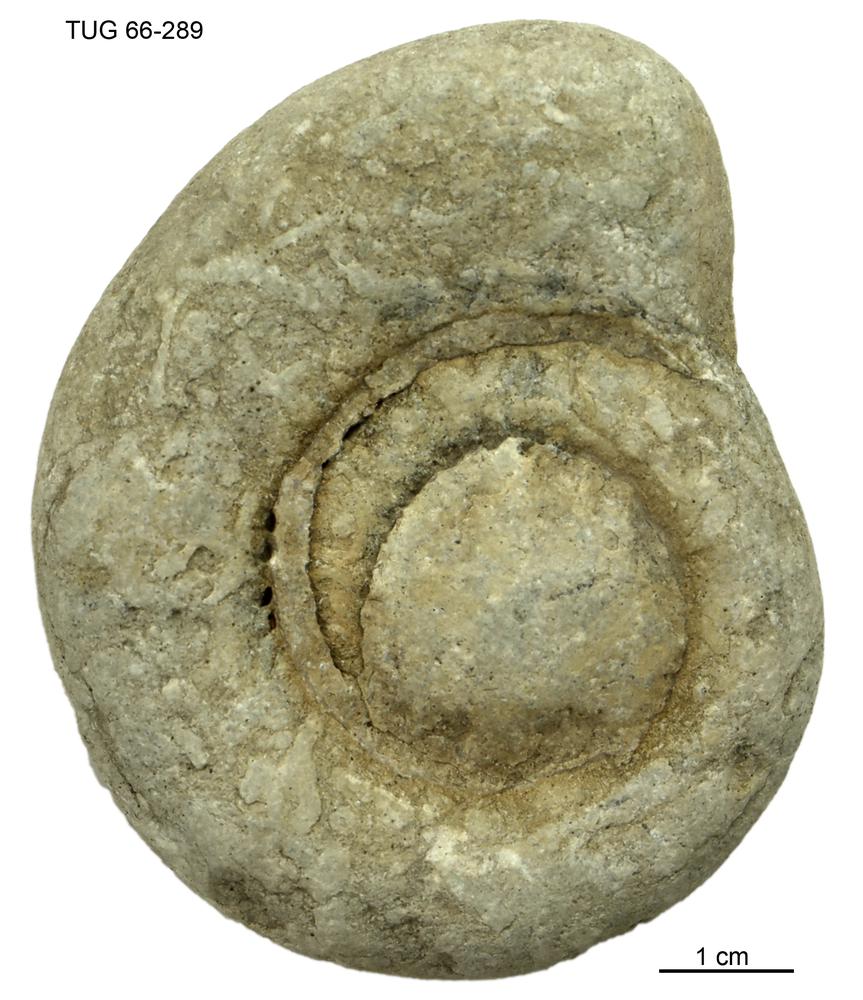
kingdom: Animalia
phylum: Mollusca
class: Cephalopoda
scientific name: Cephalopoda
